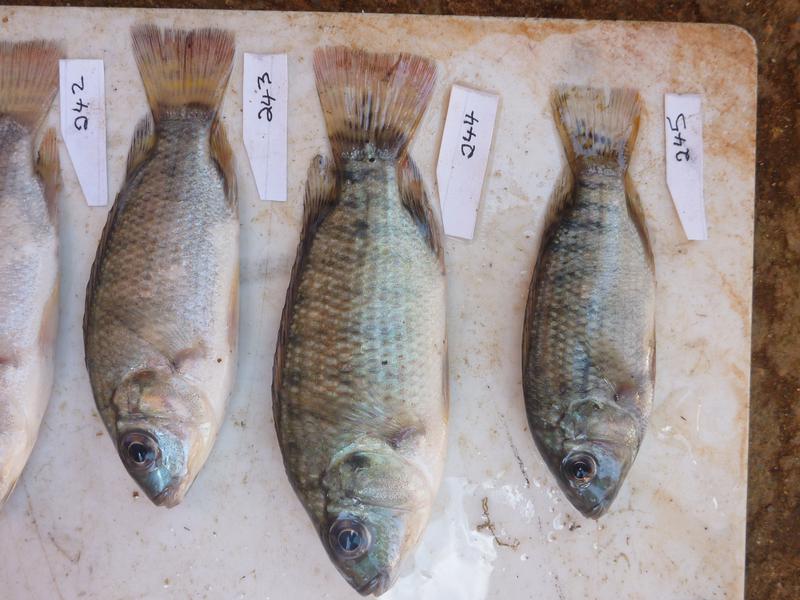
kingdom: Animalia
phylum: Chordata
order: Perciformes
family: Cichlidae
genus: Oreochromis
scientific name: Oreochromis
